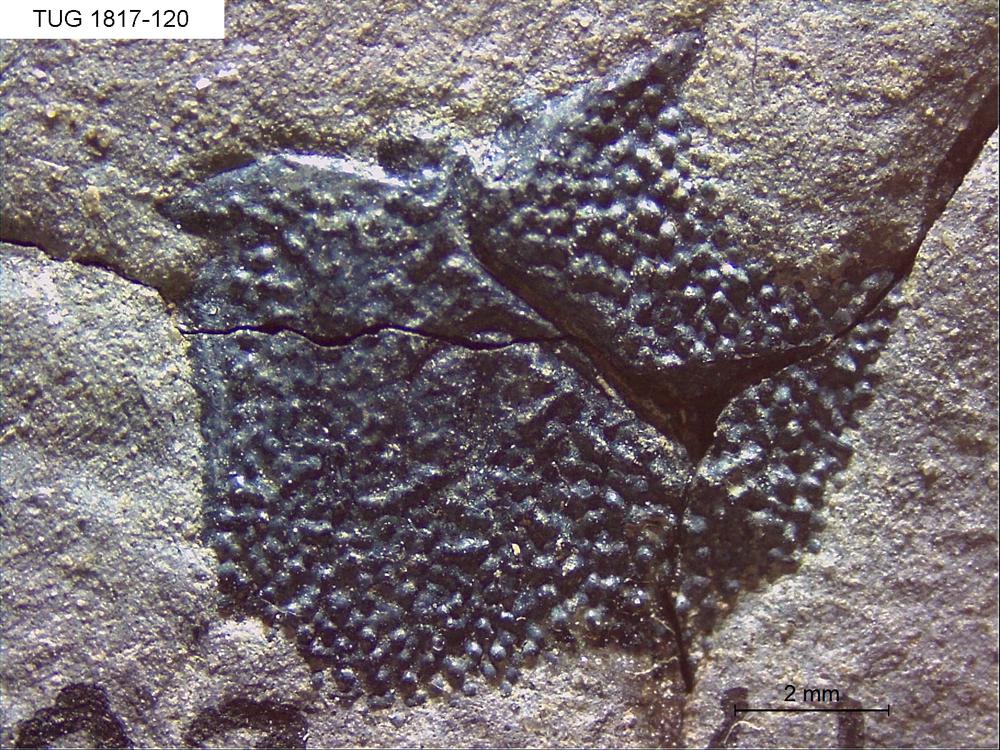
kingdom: Animalia
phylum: Chordata
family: Coccosteidae
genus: Millerosteus
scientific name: Millerosteus minor
